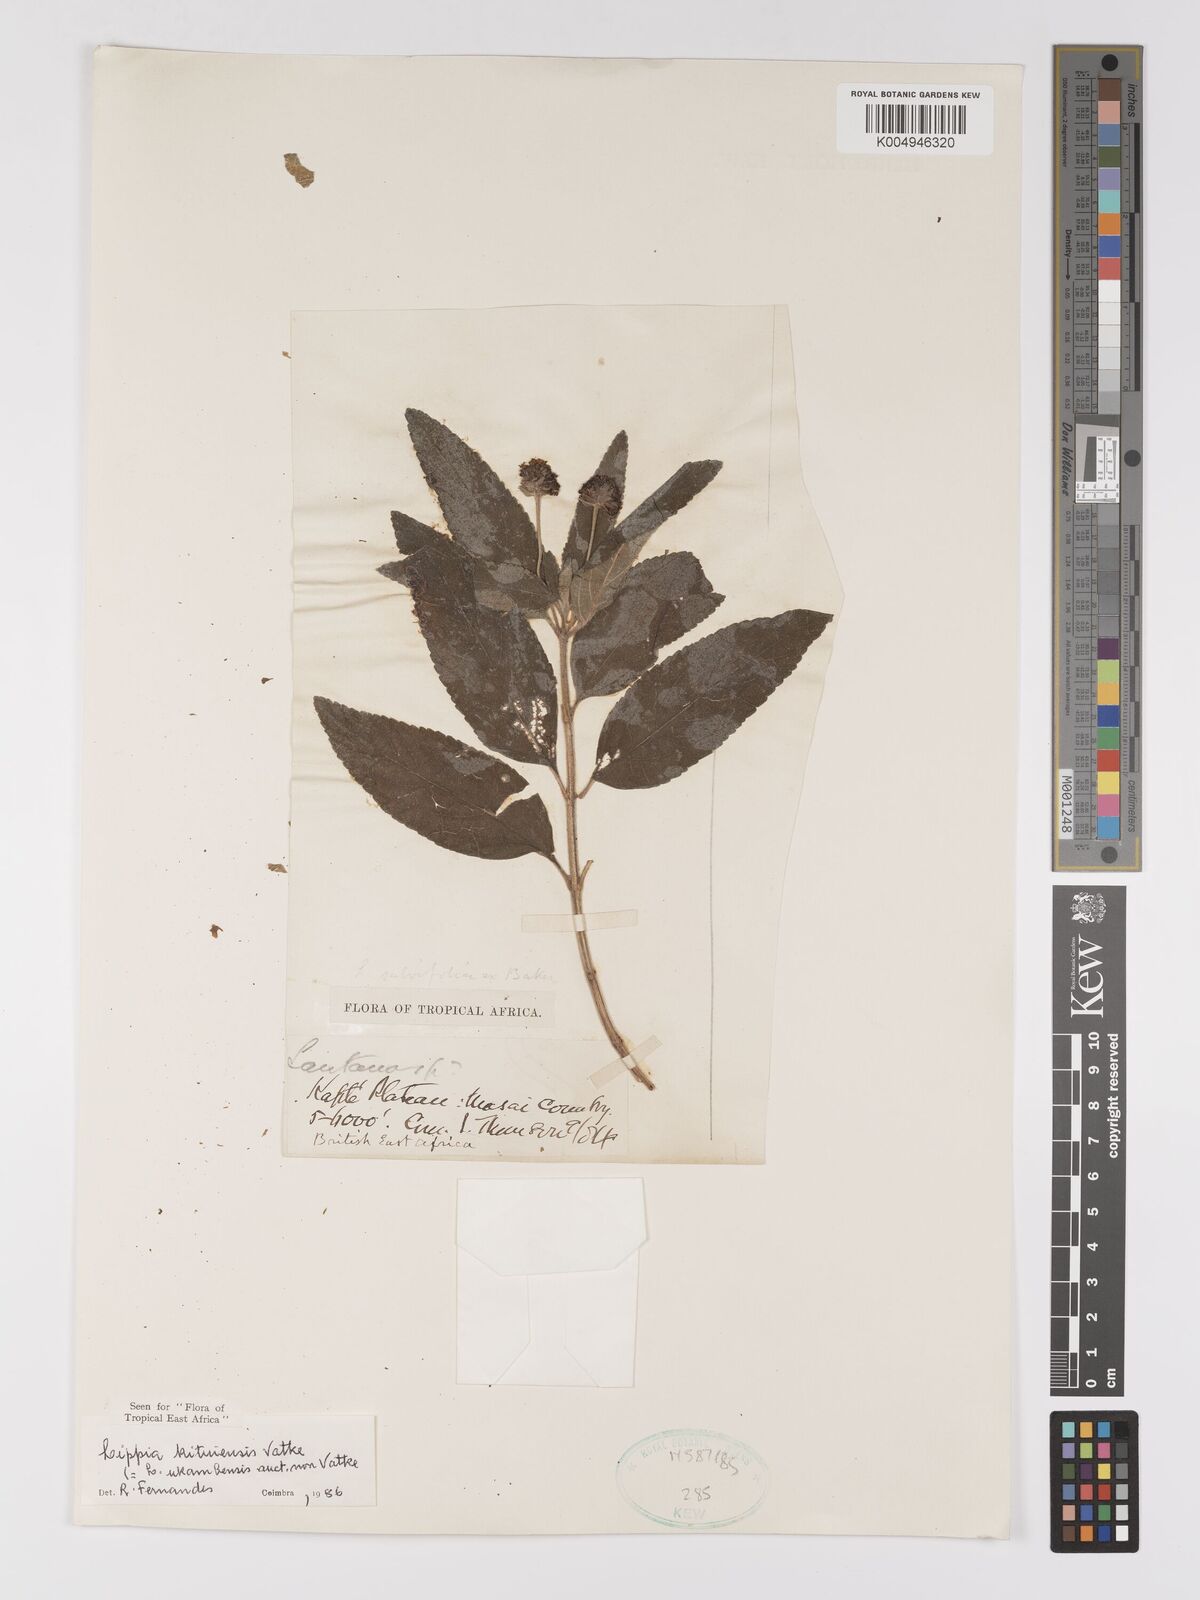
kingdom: Plantae
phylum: Tracheophyta
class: Magnoliopsida
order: Lamiales
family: Verbenaceae
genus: Lantana
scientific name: Lantana ukambensis
